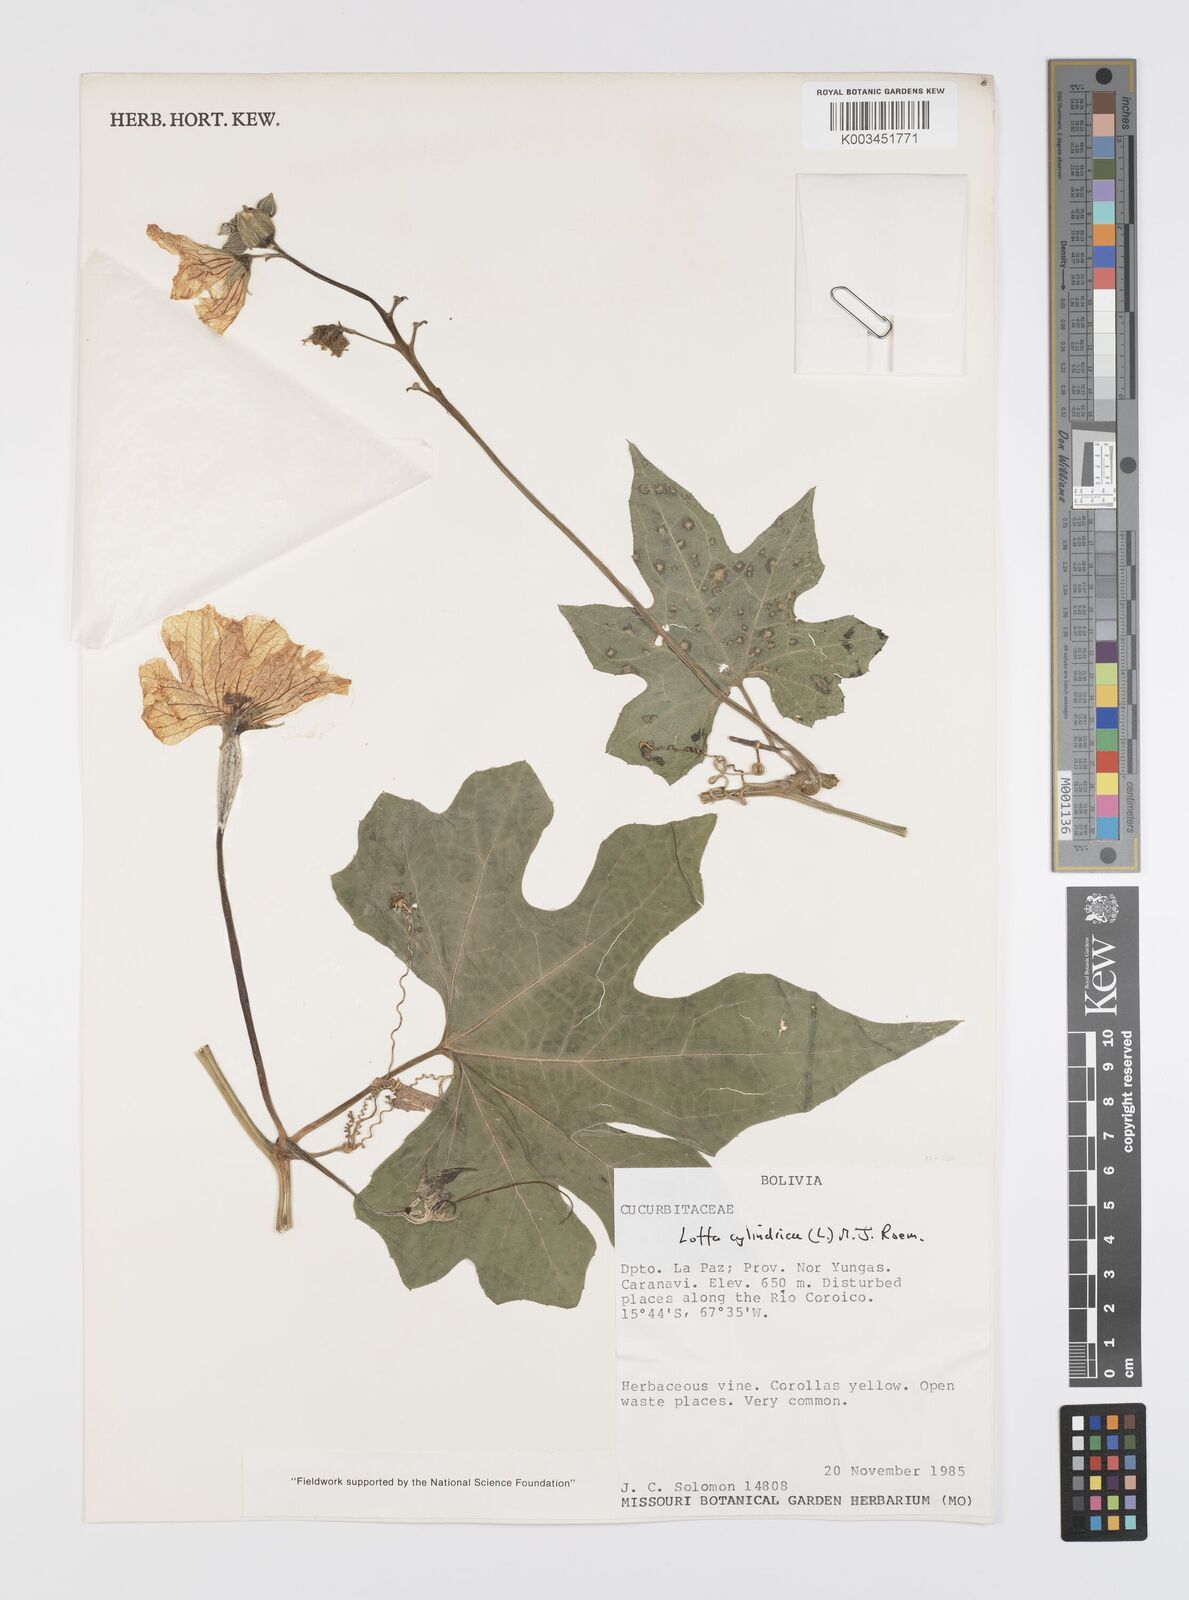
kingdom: Plantae
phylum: Tracheophyta
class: Magnoliopsida
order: Cucurbitales
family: Cucurbitaceae
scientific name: Cucurbitaceae
